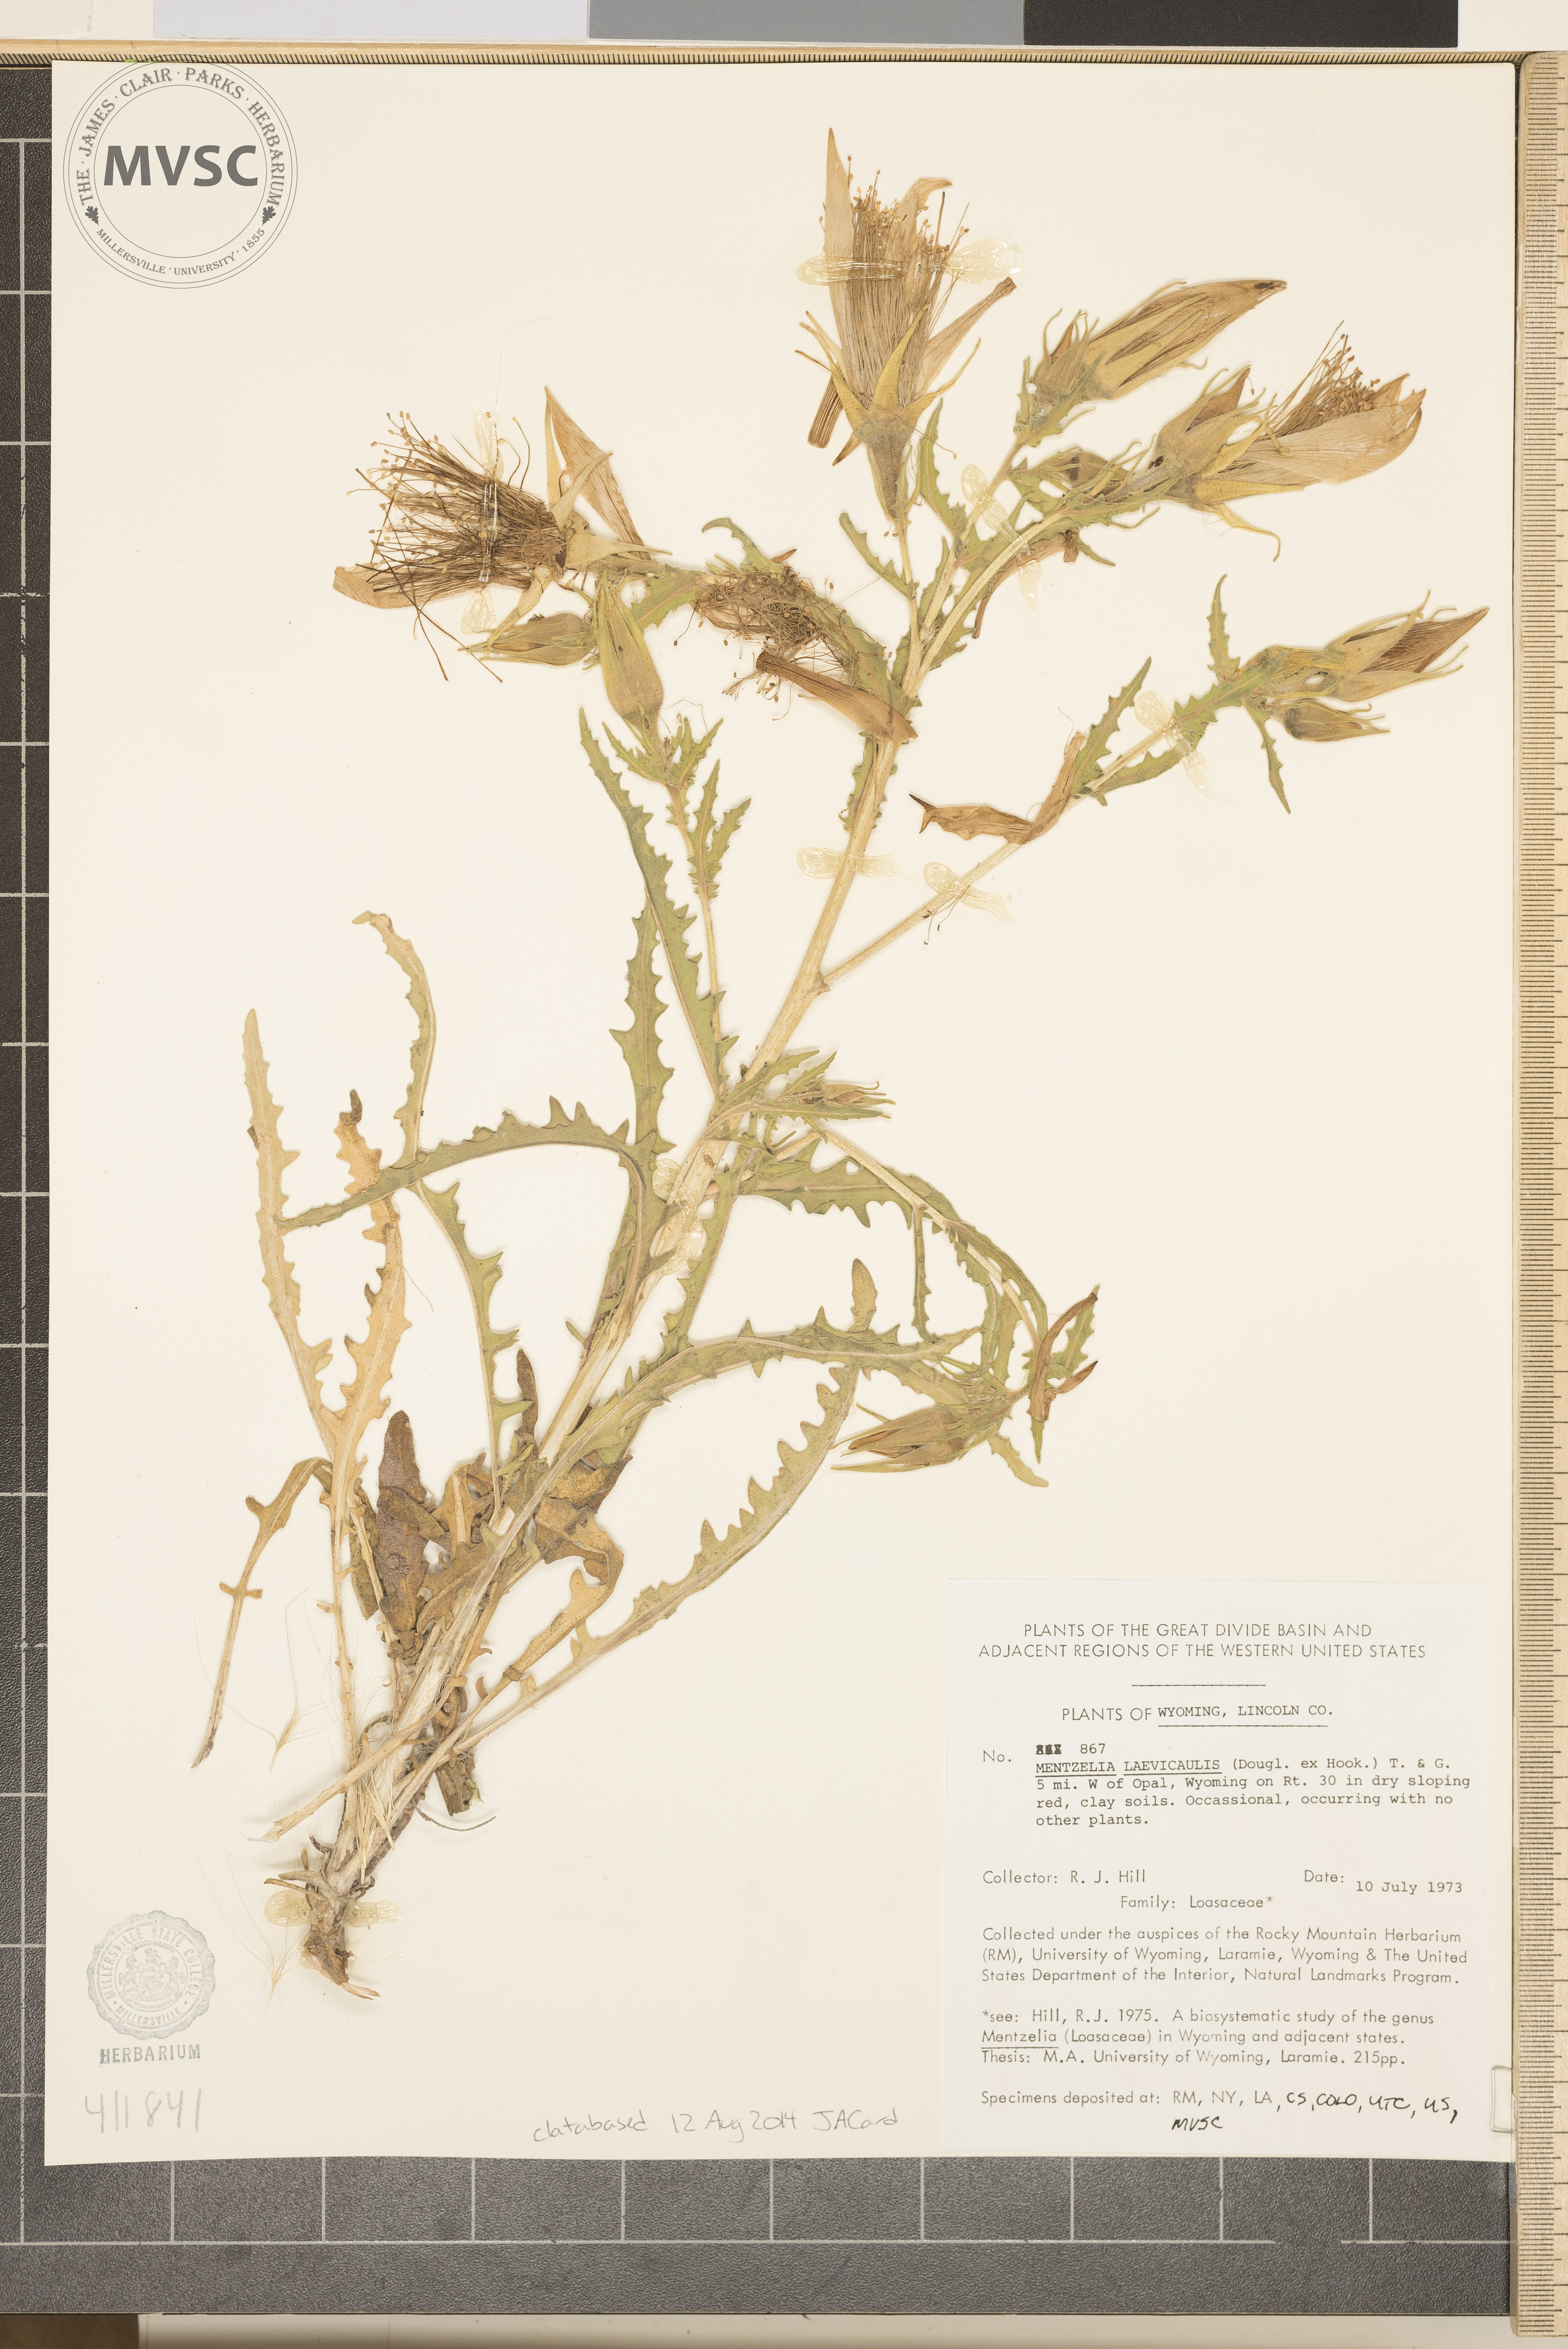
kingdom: Plantae
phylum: Tracheophyta
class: Magnoliopsida
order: Cornales
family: Loasaceae
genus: Mentzelia
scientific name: Mentzelia laevicaulis
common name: Smooth-stem blazingstar
